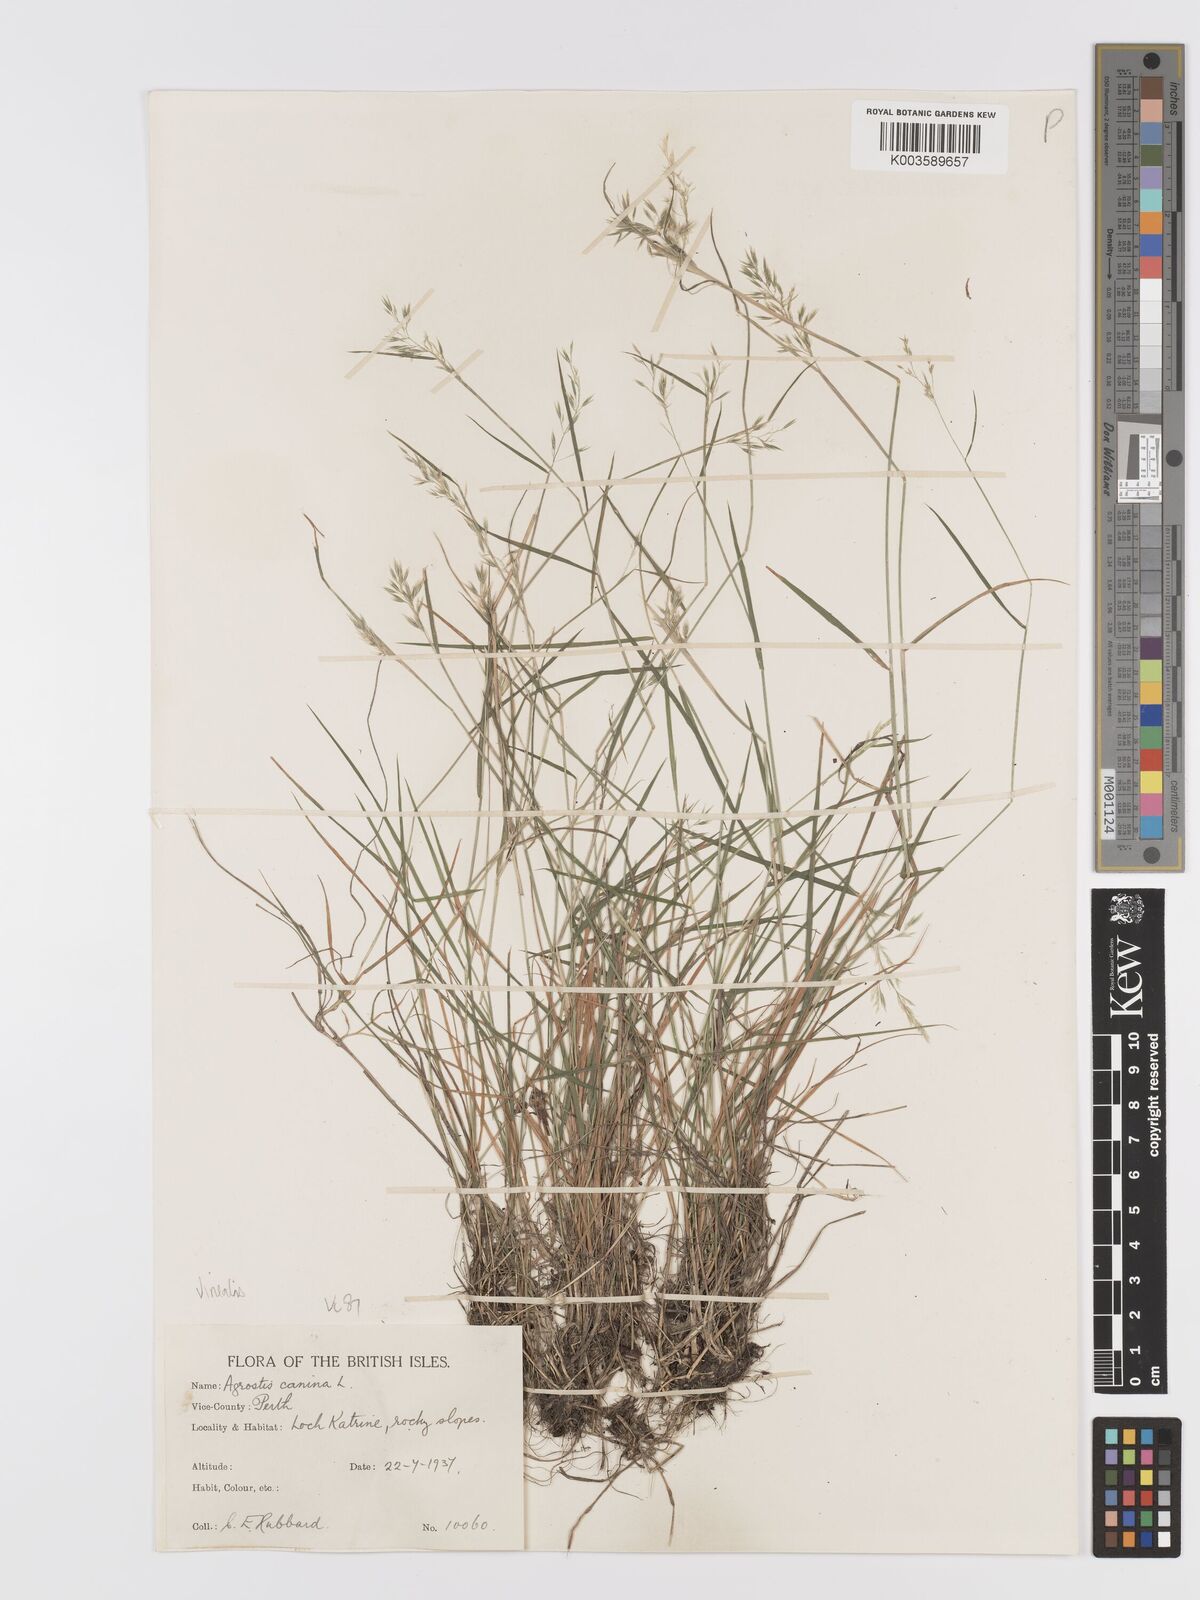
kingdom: Plantae
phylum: Tracheophyta
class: Liliopsida
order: Poales
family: Poaceae
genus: Agrostis
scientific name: Agrostis
